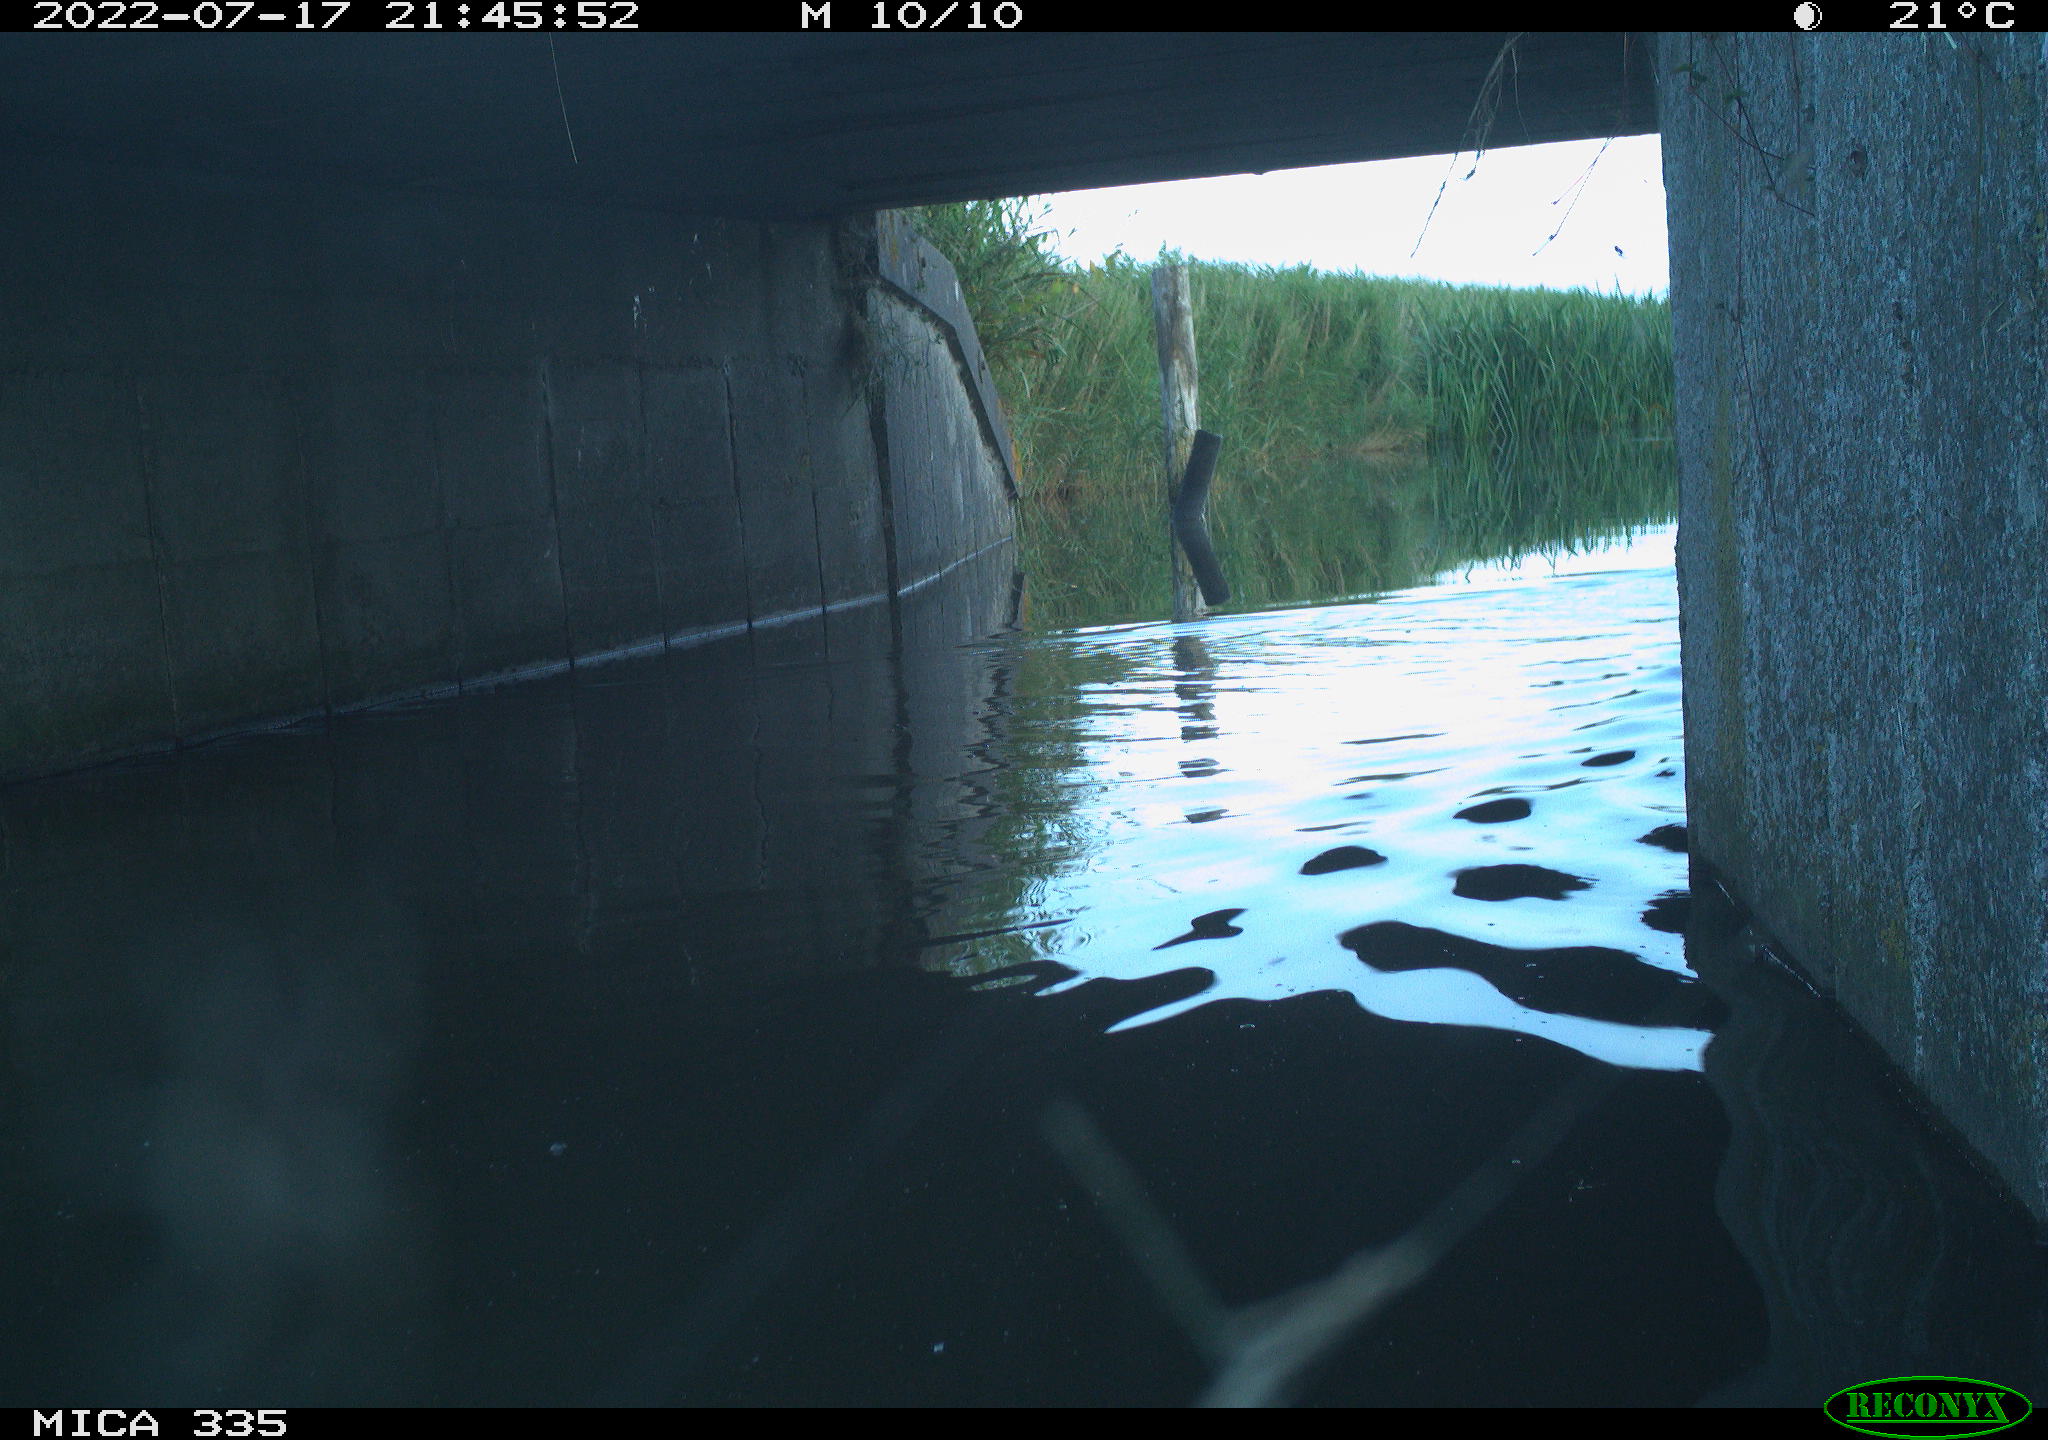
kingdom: Animalia
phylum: Chordata
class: Aves
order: Anseriformes
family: Anatidae
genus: Anas
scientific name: Anas platyrhynchos
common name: Mallard
